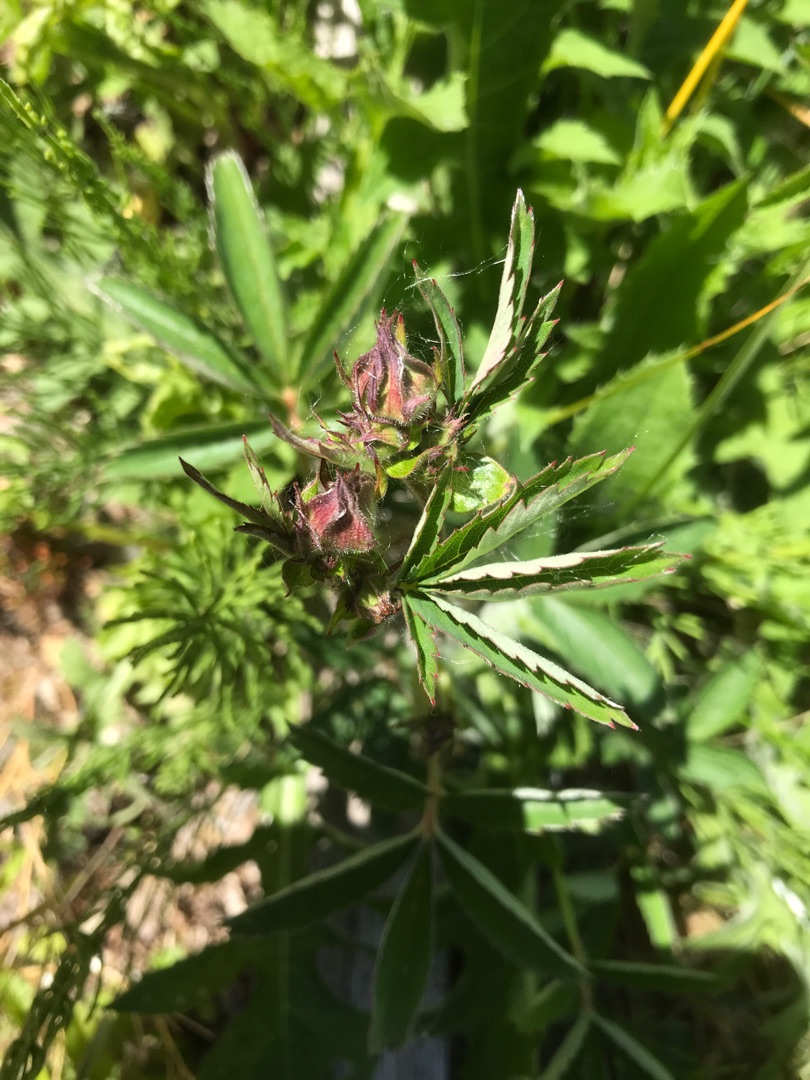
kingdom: Plantae
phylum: Tracheophyta
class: Magnoliopsida
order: Rosales
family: Rosaceae
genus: Comarum
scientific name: Comarum palustre
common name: Kragefod
